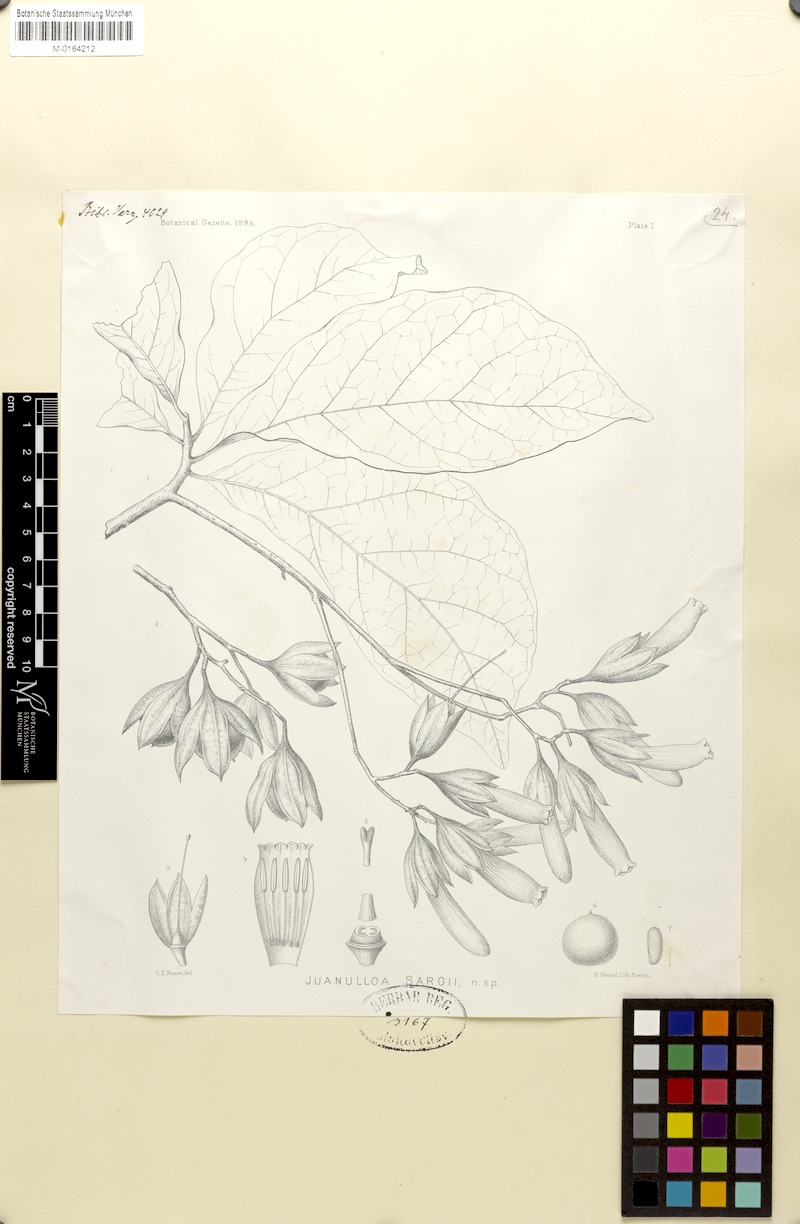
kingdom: Plantae
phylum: Tracheophyta
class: Magnoliopsida
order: Solanales
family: Solanaceae
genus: Juanulloa
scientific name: Juanulloa mexicana
